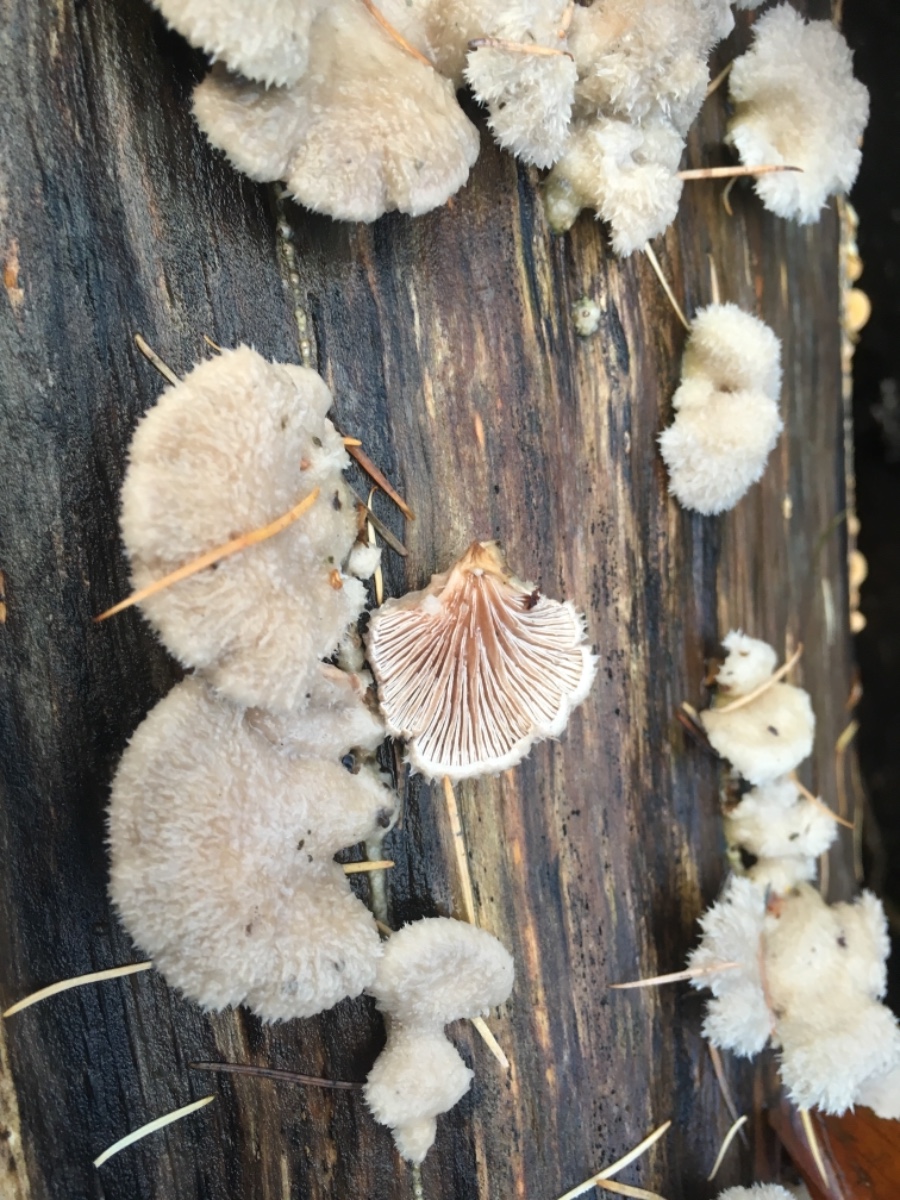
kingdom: Fungi
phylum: Basidiomycota
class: Agaricomycetes
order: Agaricales
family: Schizophyllaceae
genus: Schizophyllum
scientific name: Schizophyllum commune
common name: kløvblad
